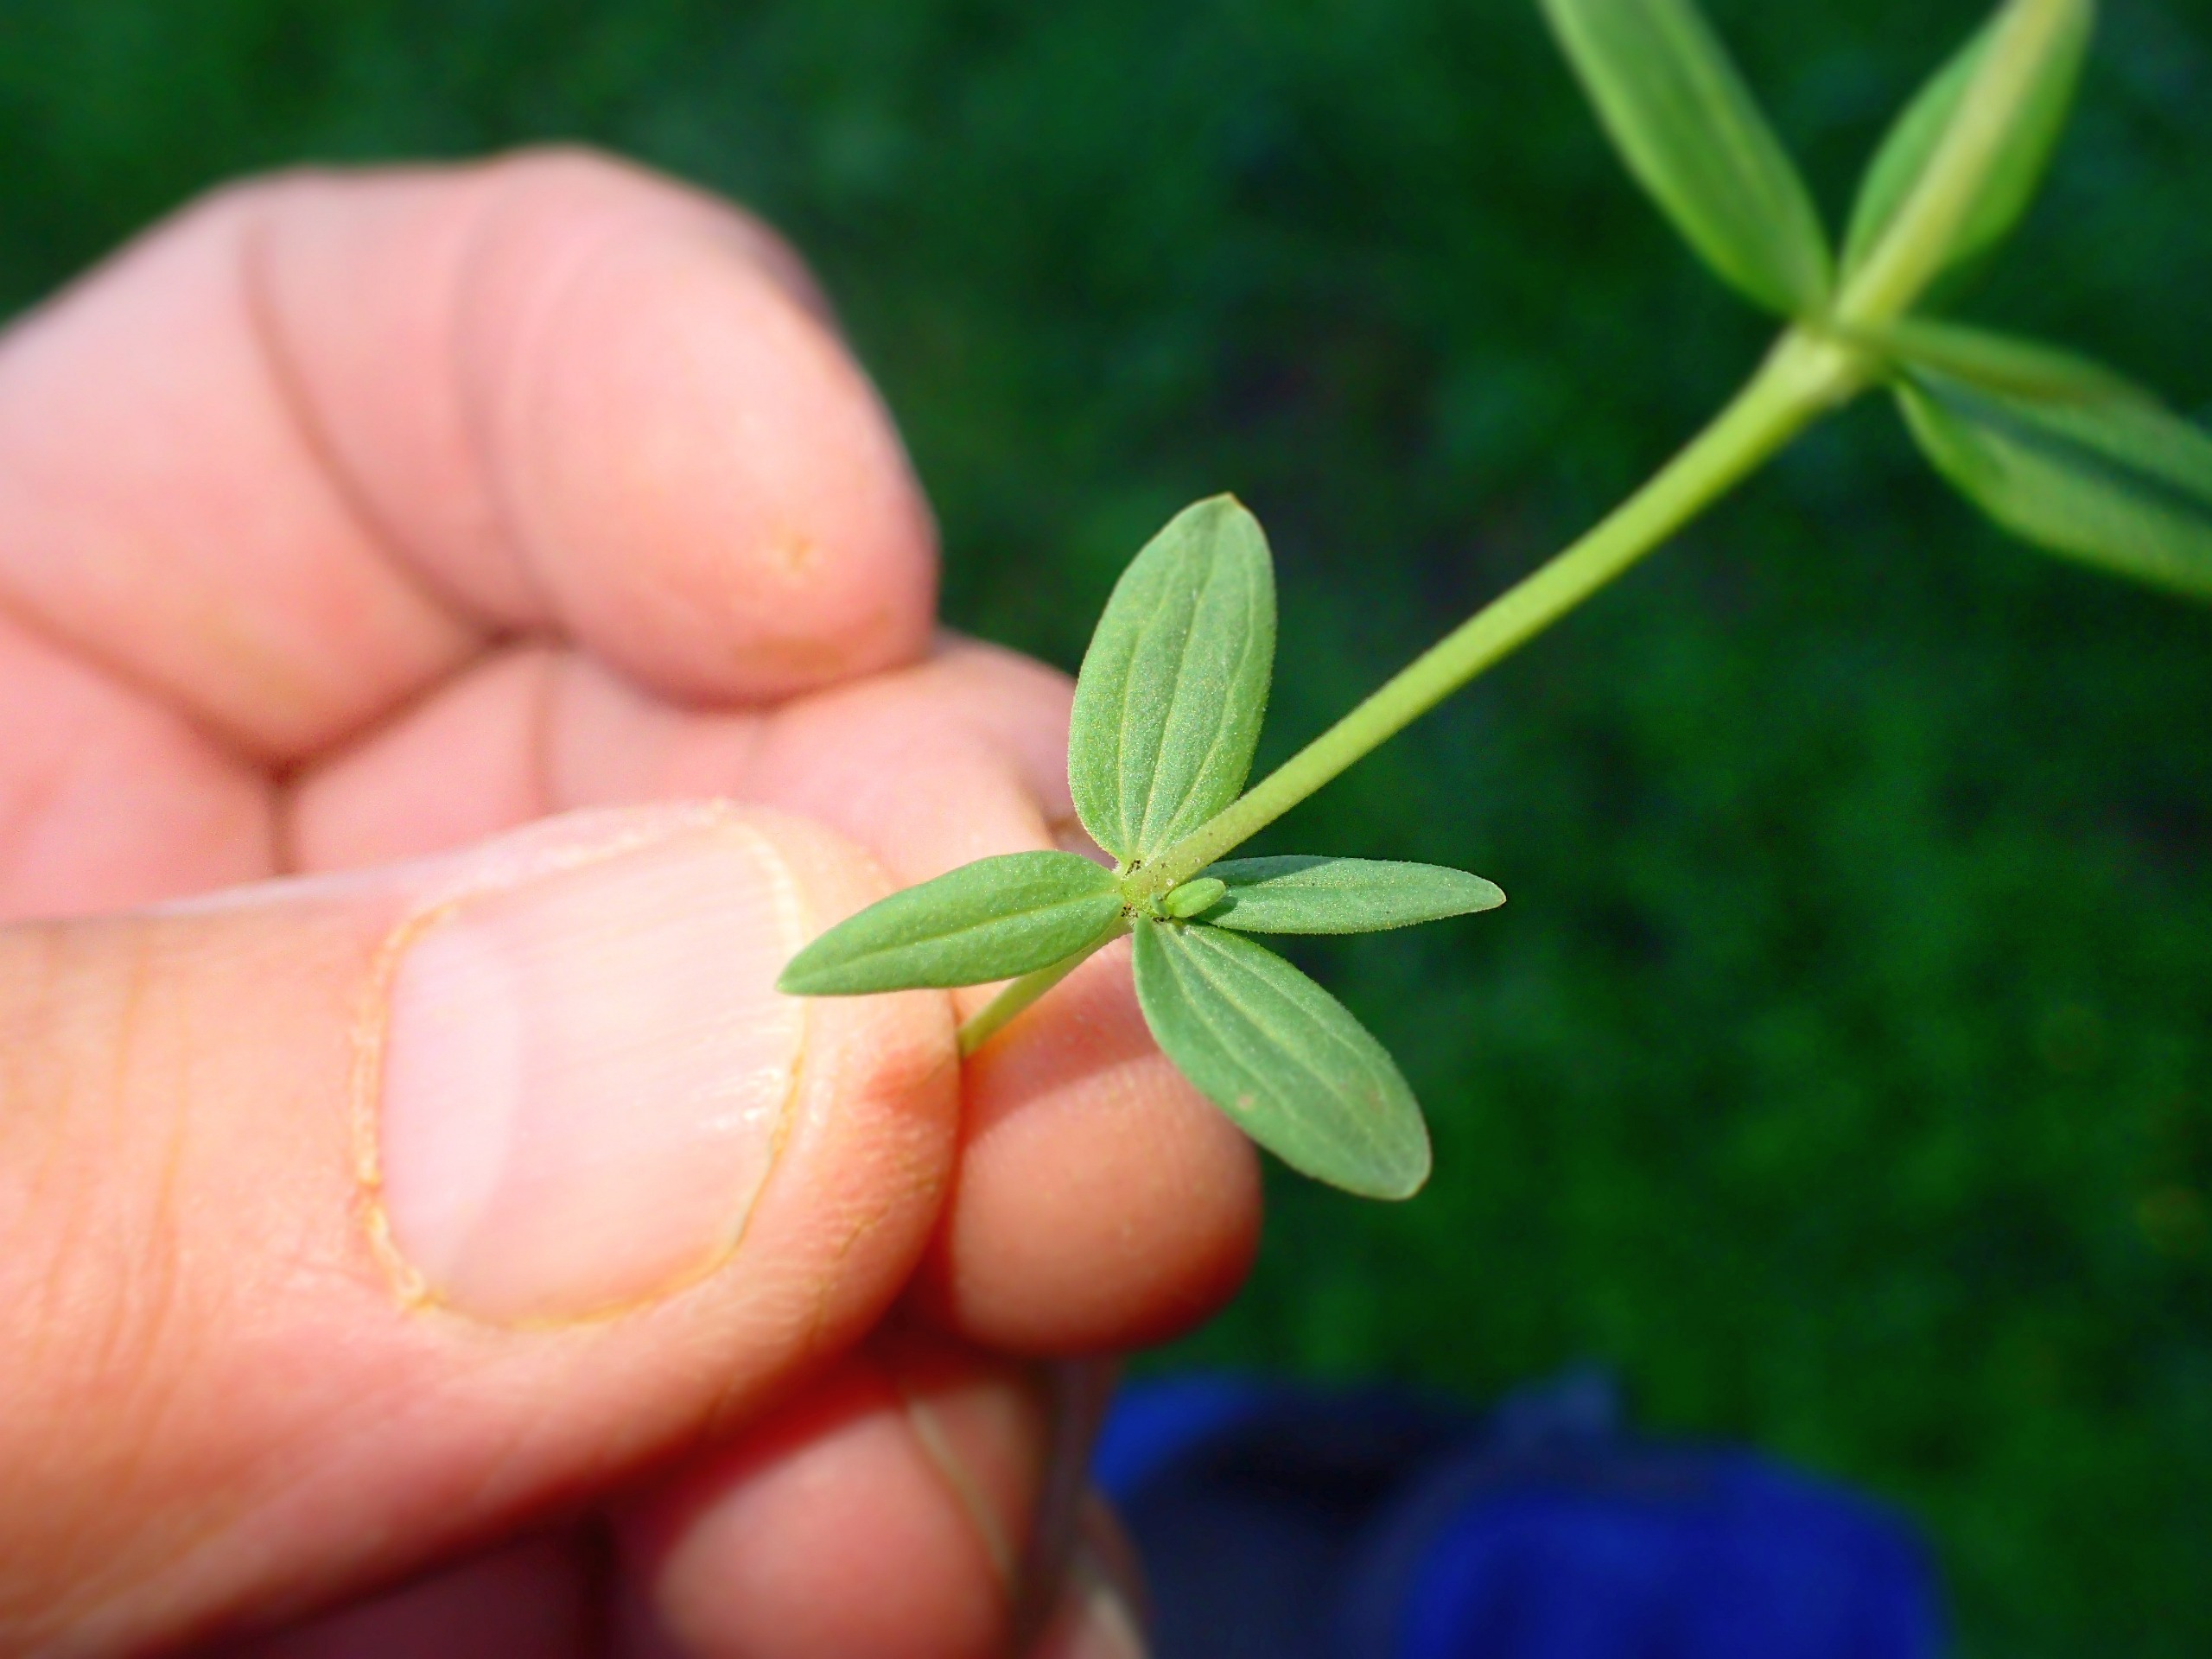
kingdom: Plantae
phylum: Tracheophyta
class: Magnoliopsida
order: Gentianales
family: Rubiaceae
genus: Galium
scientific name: Galium boreale
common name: Trenervet snerre
